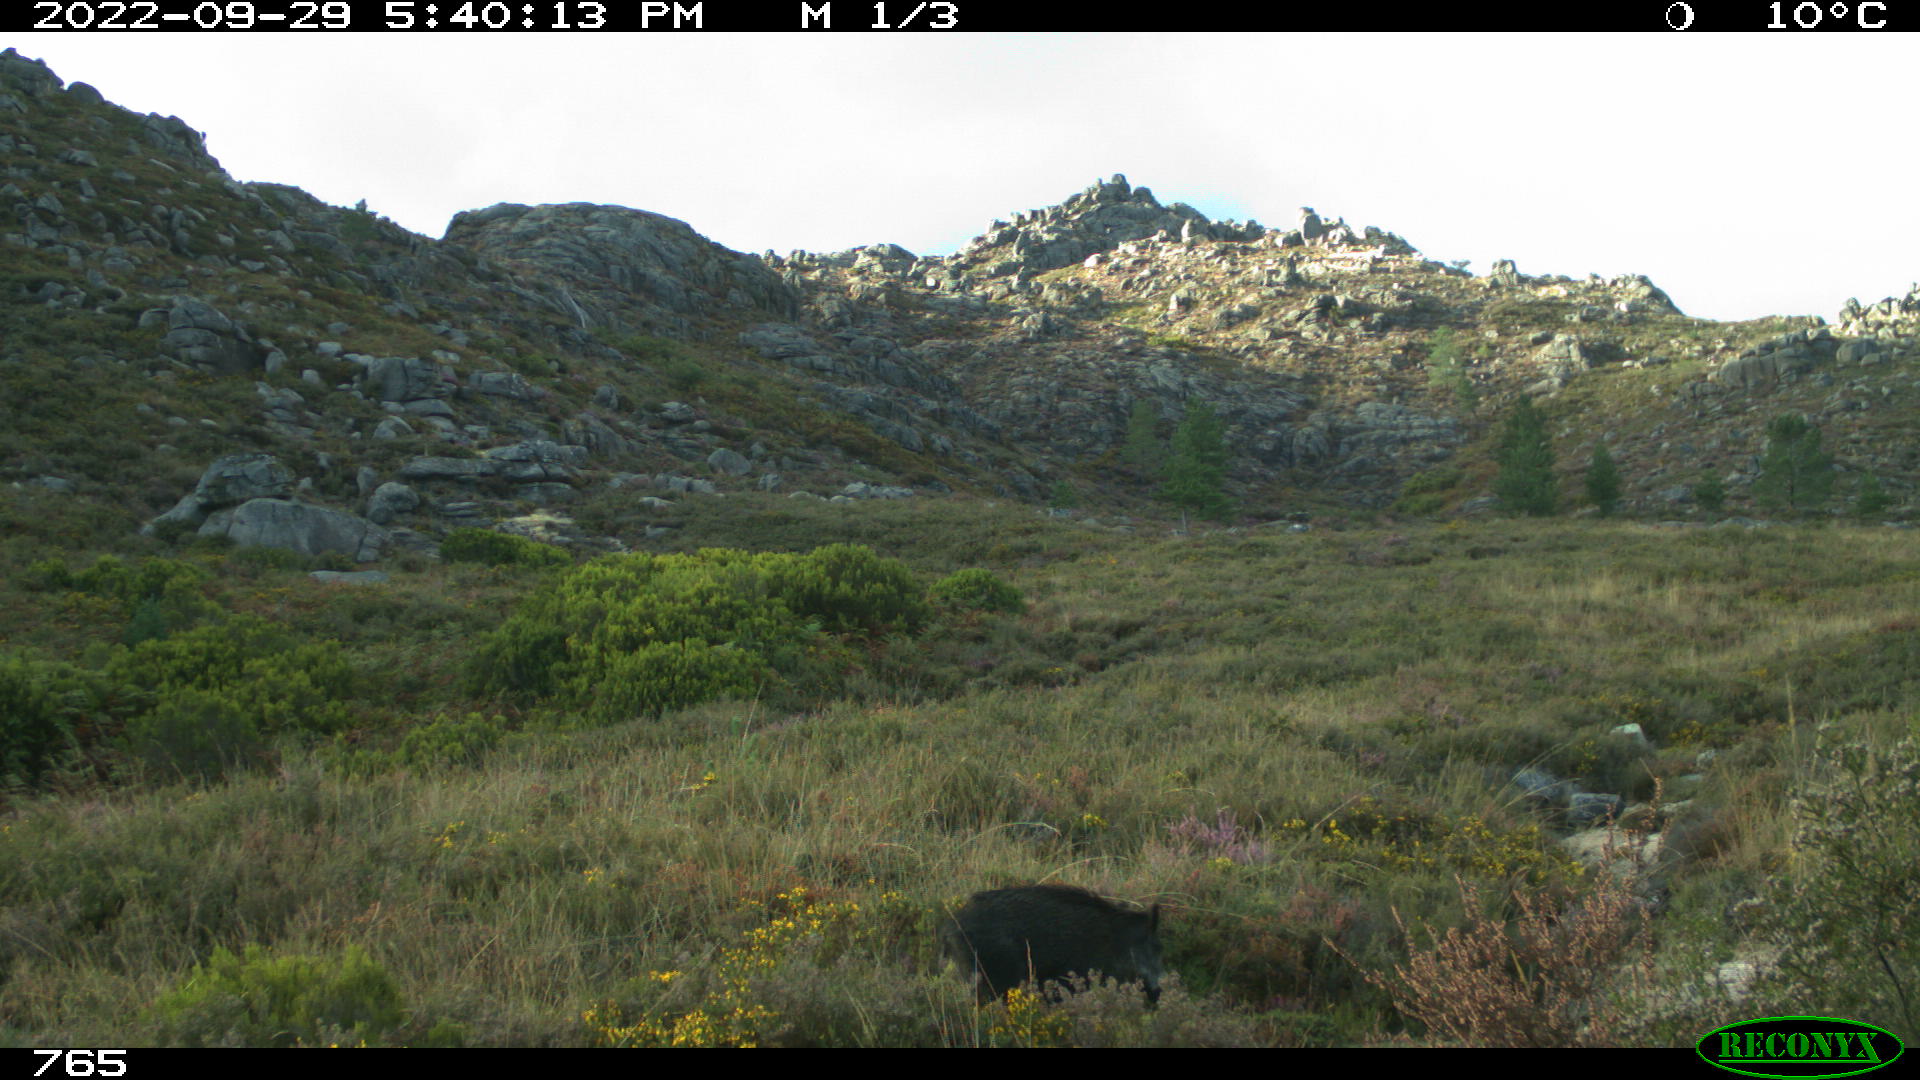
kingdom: Animalia
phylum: Chordata
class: Mammalia
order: Artiodactyla
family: Suidae
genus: Sus
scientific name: Sus scrofa
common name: Wild boar
